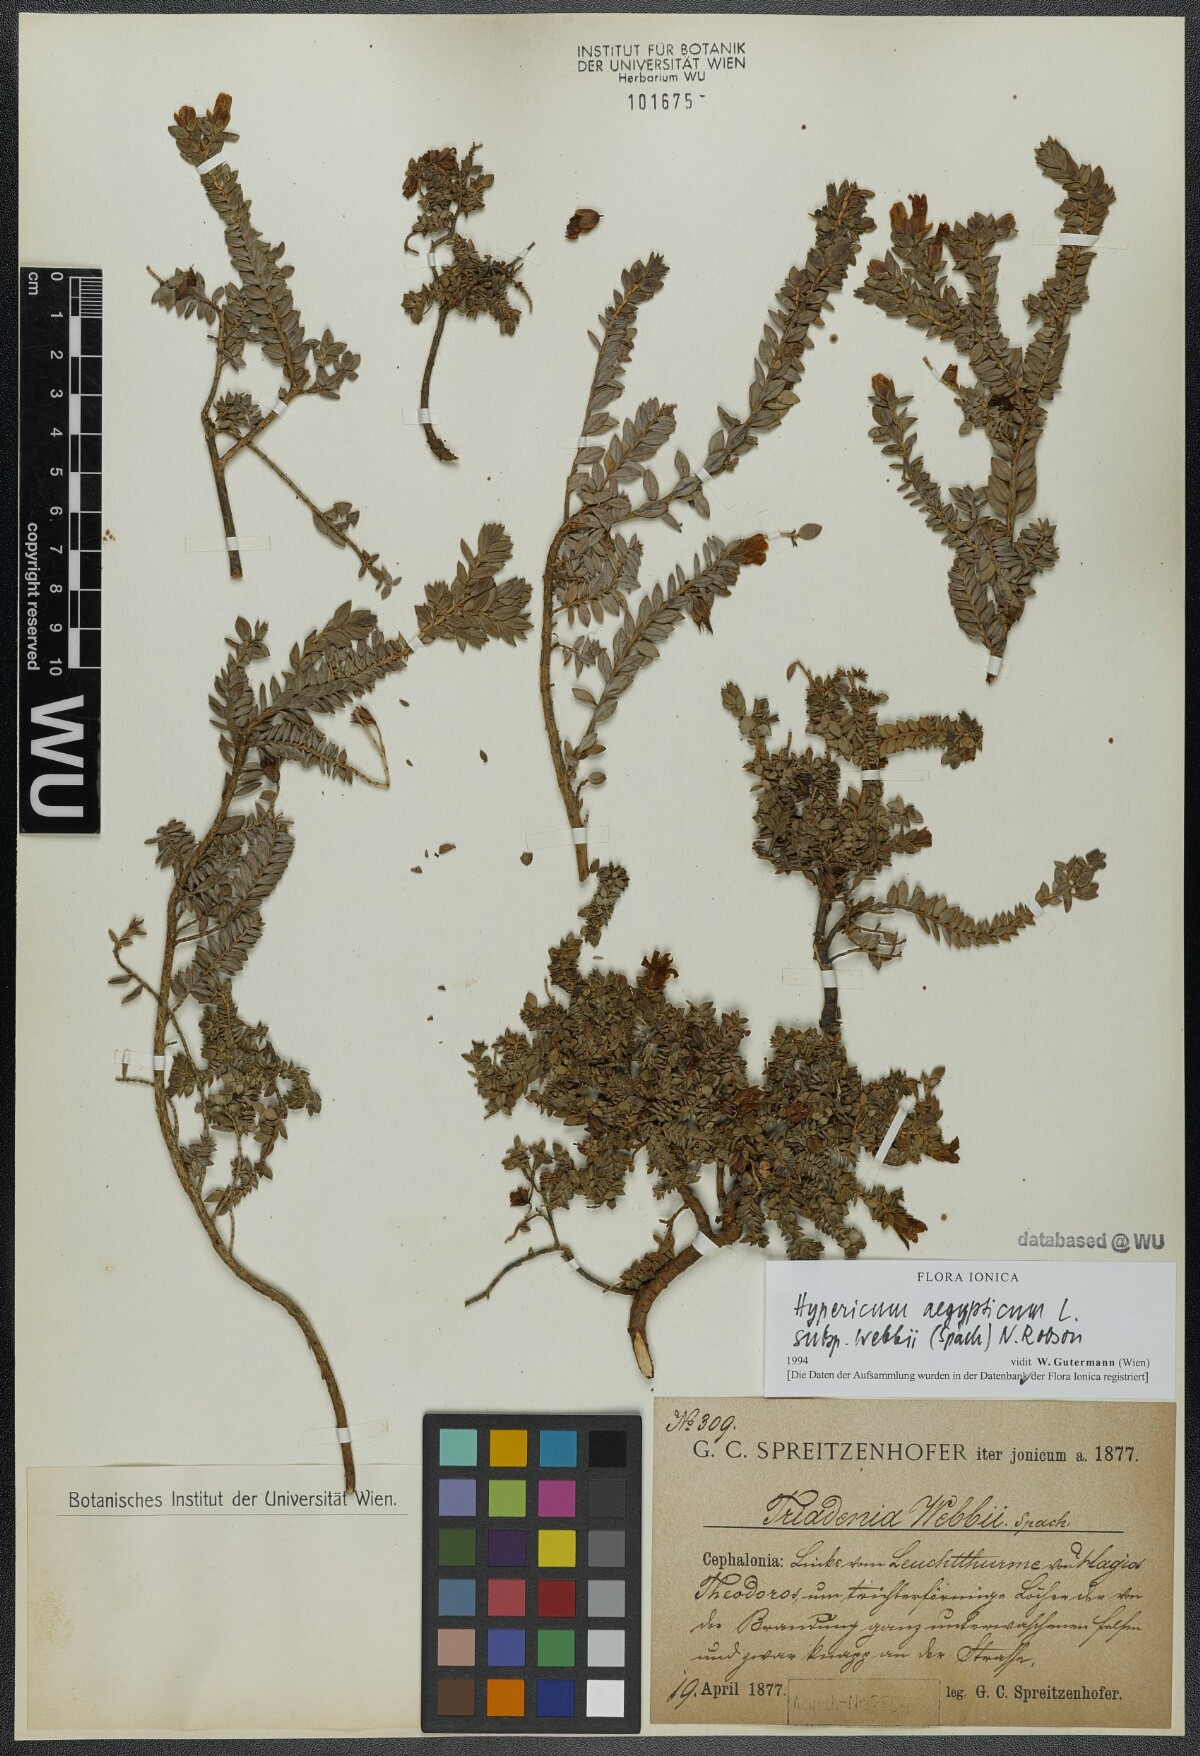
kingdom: Plantae
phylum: Tracheophyta
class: Magnoliopsida
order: Malpighiales
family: Hypericaceae
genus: Hypericum
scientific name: Hypericum aegypticum
